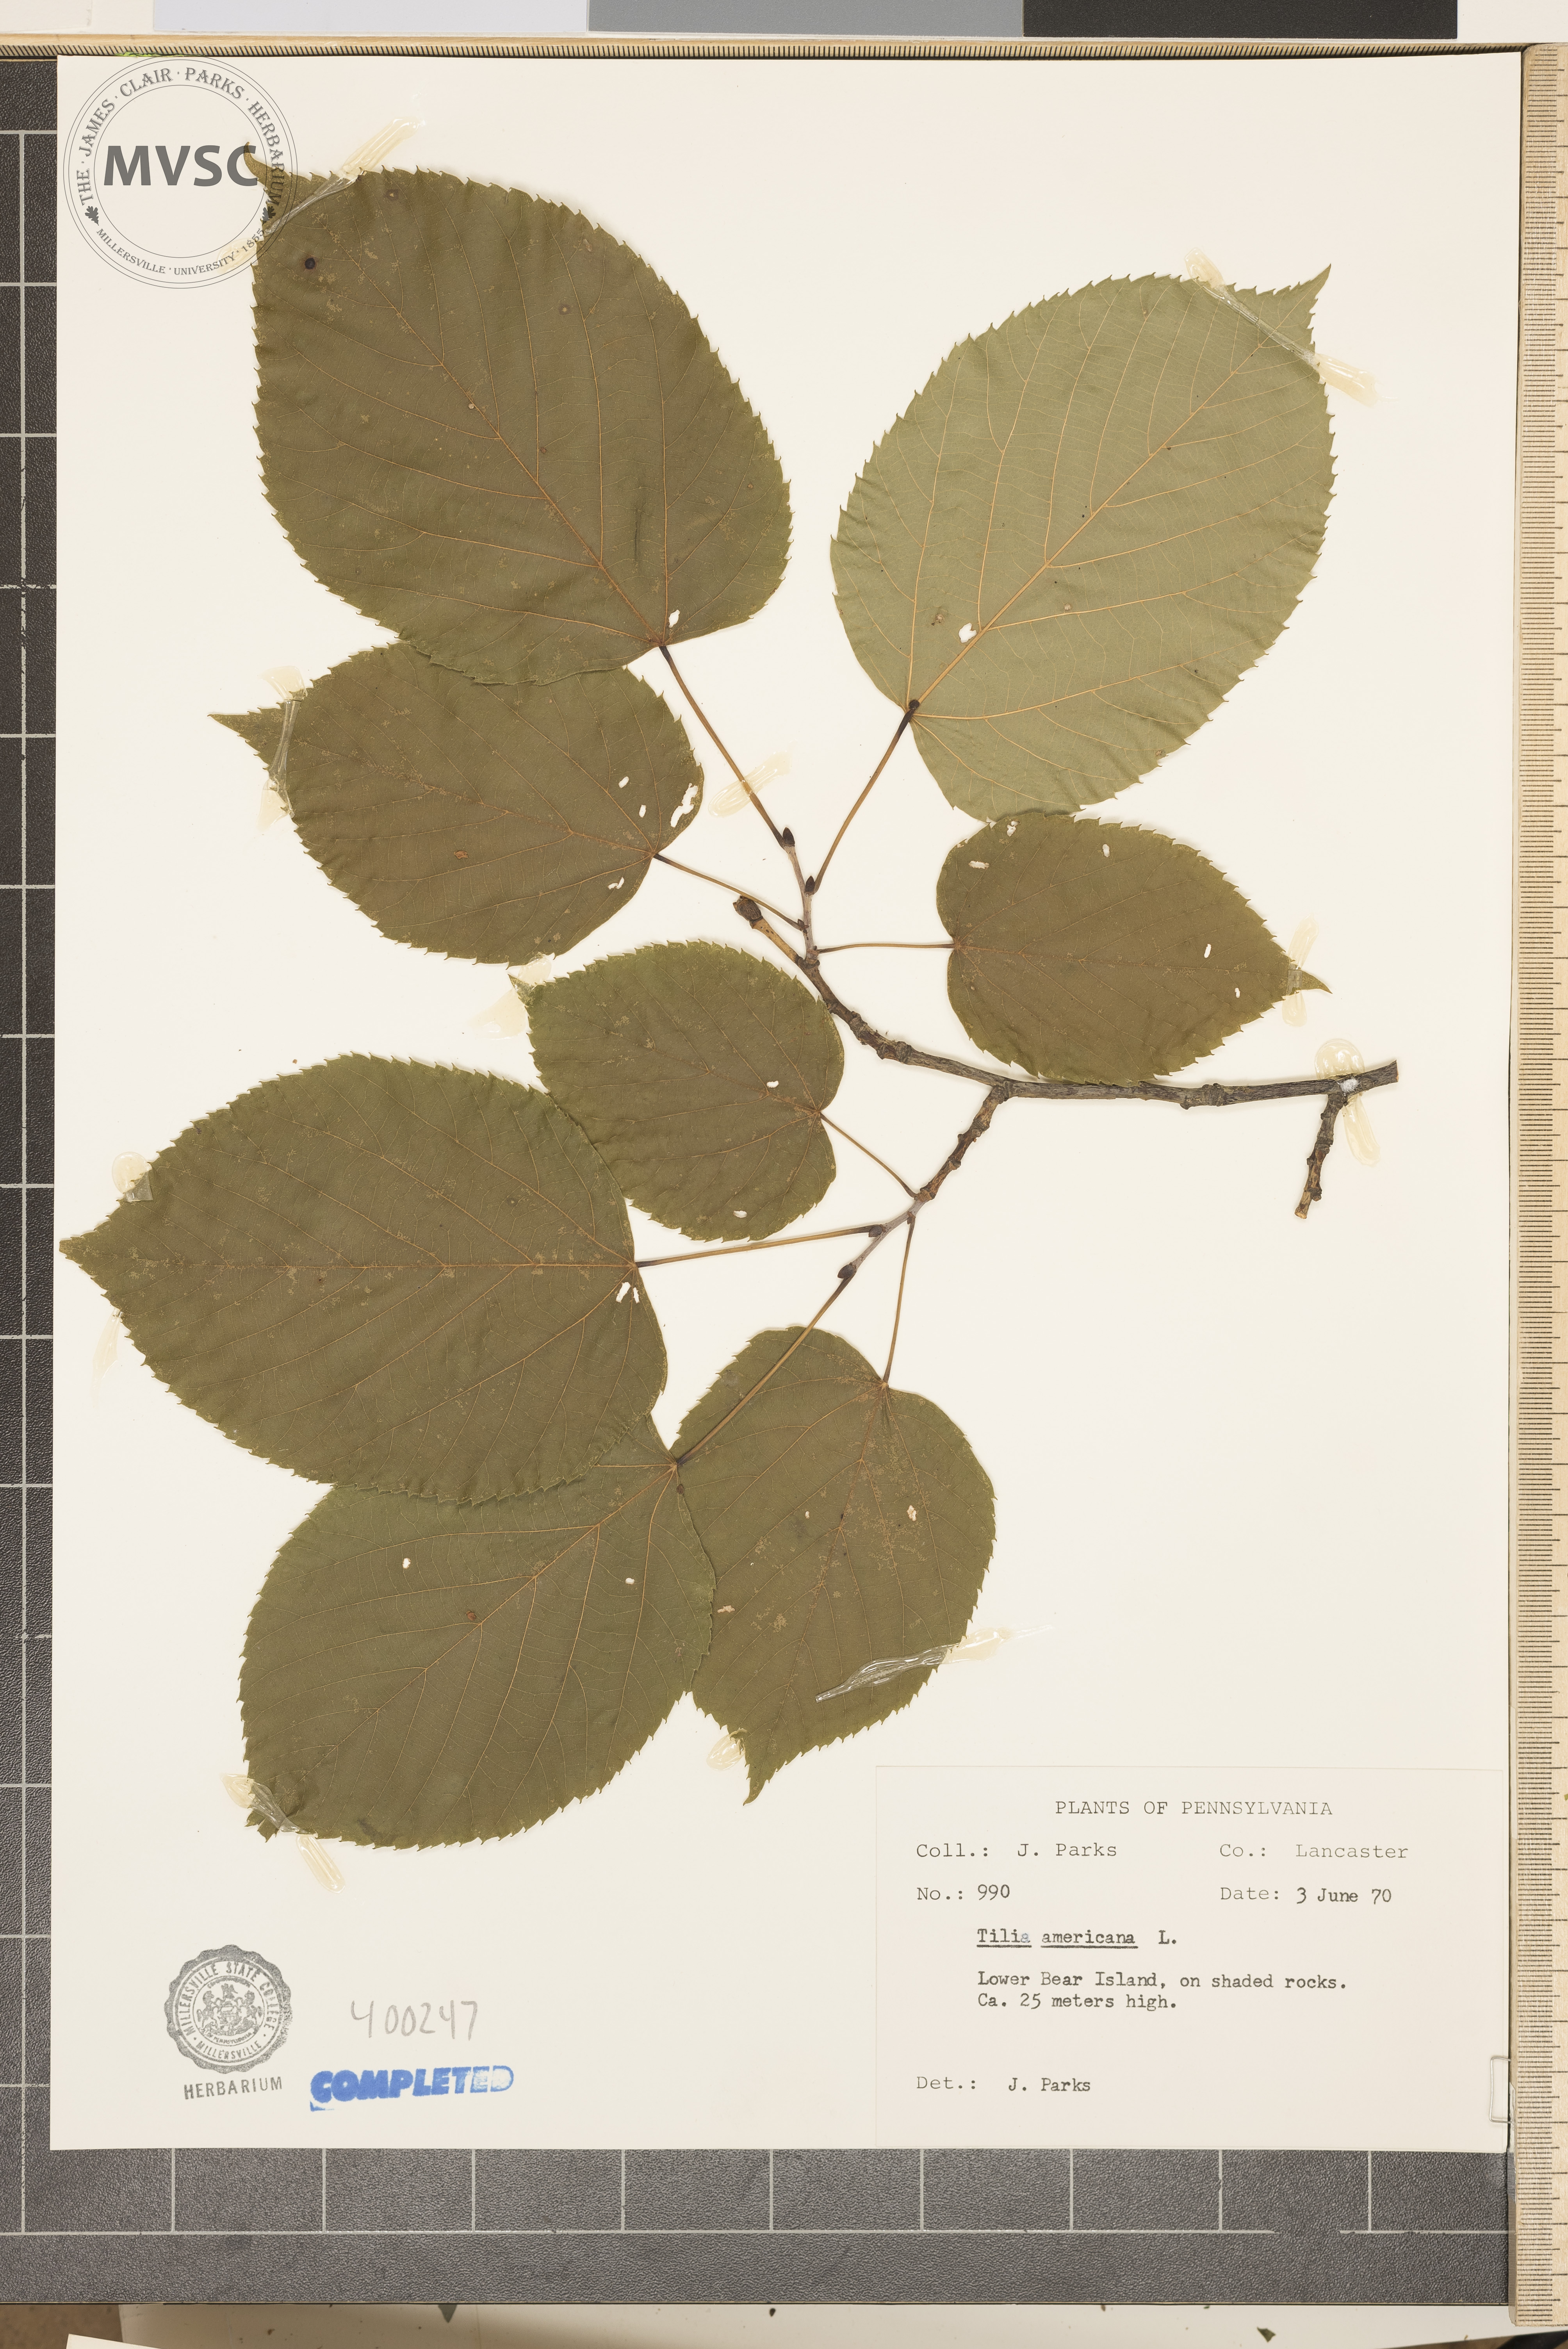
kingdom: Plantae
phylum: Tracheophyta
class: Magnoliopsida
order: Malvales
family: Malvaceae
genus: Tilia
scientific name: Tilia americana
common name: American basswood
